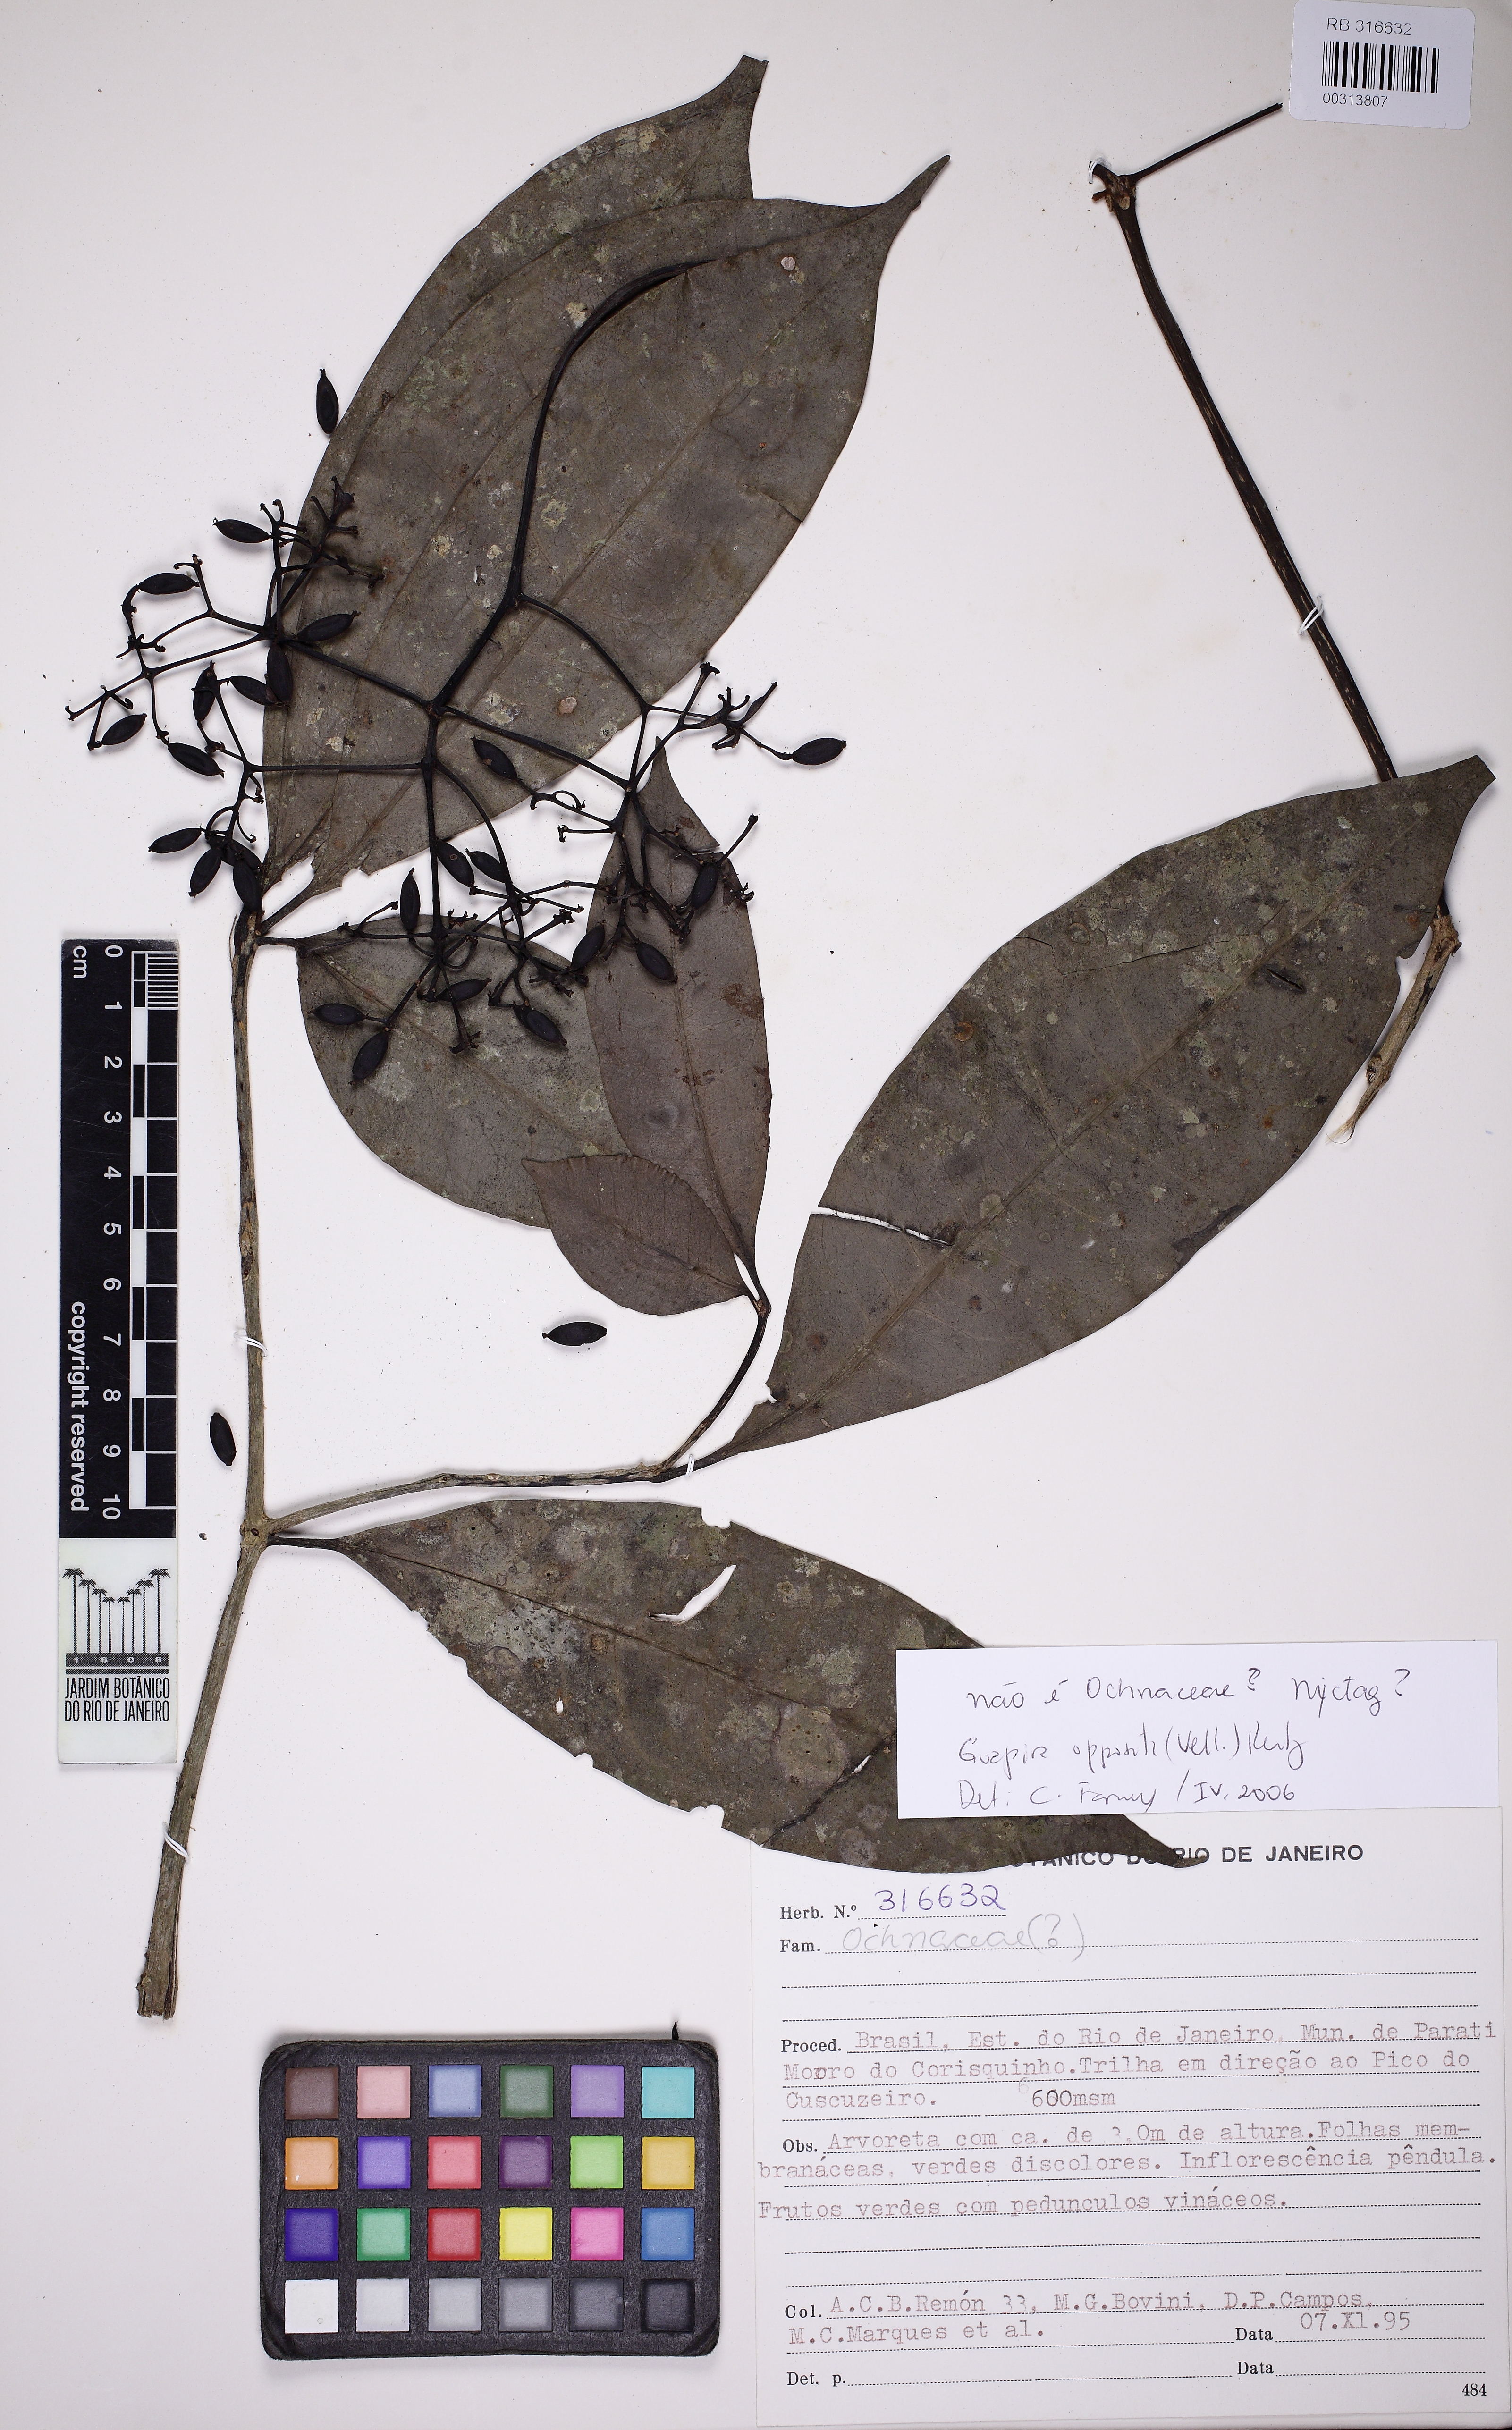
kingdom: Plantae
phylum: Tracheophyta
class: Magnoliopsida
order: Caryophyllales
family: Nyctaginaceae
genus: Guapira
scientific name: Guapira opposita
